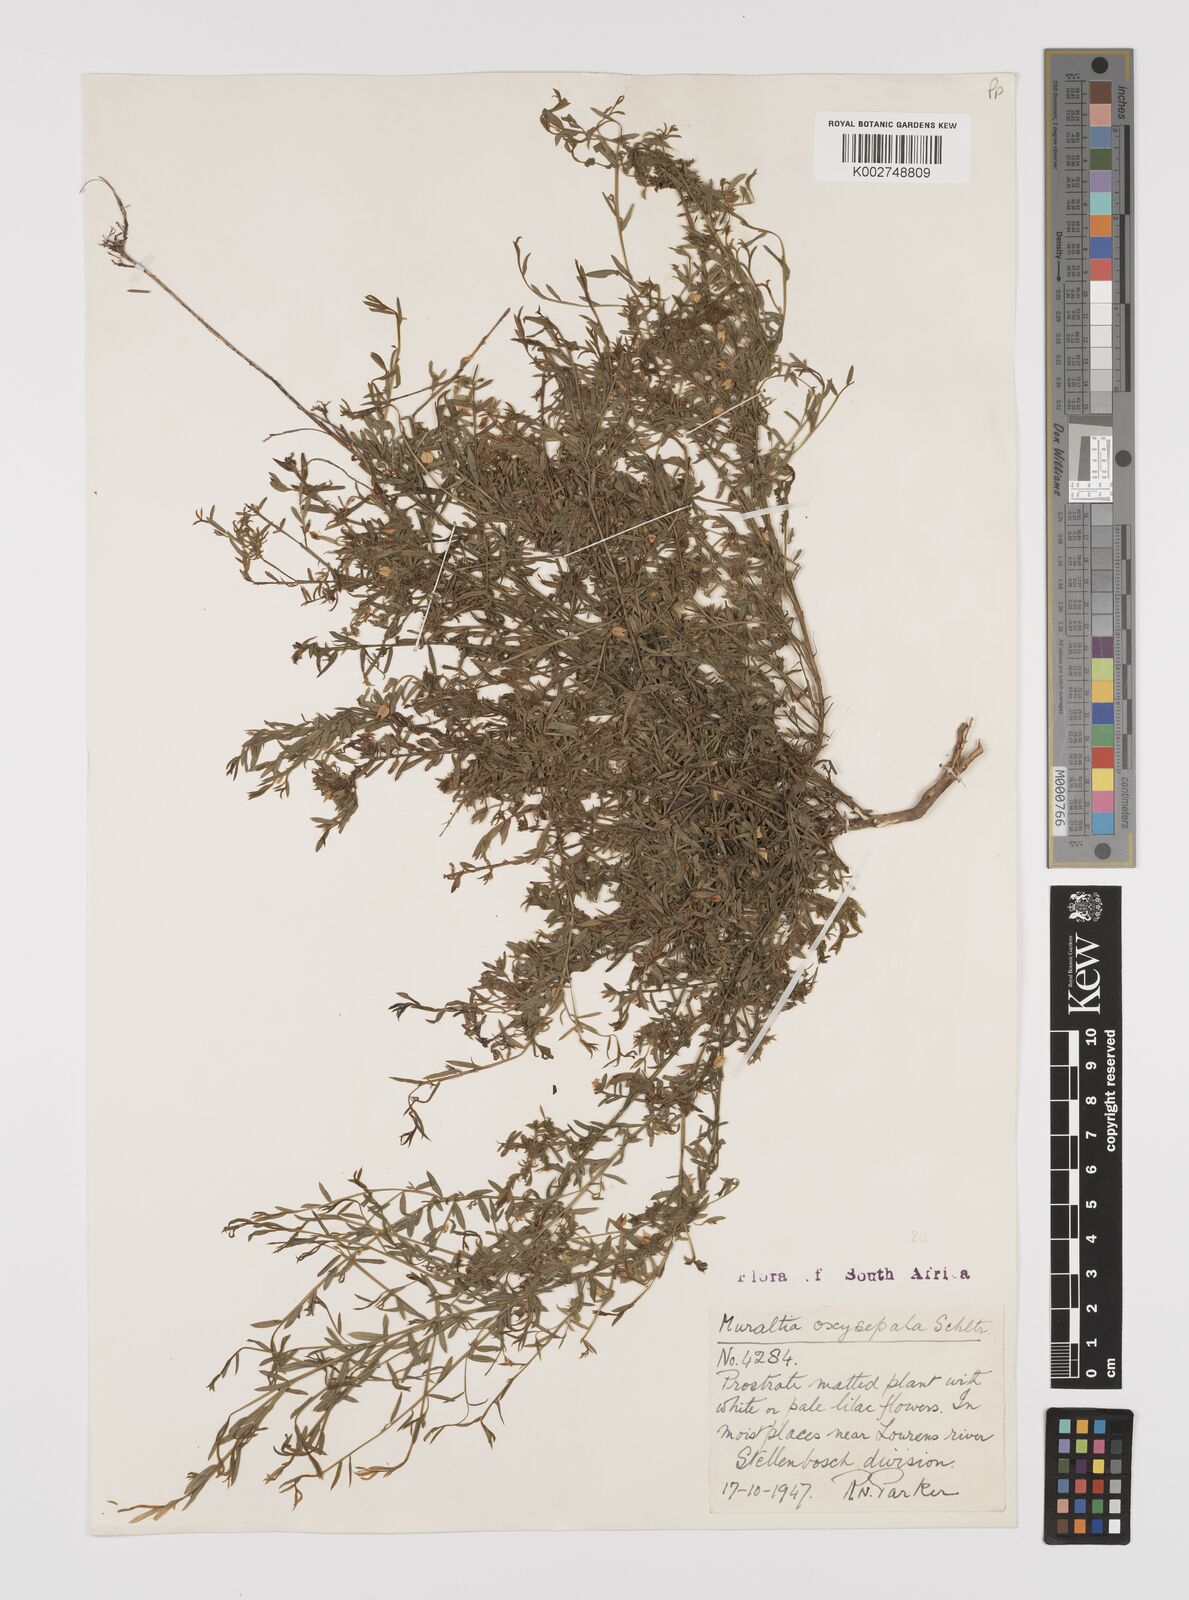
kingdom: Plantae
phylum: Tracheophyta
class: Magnoliopsida
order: Fabales
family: Polygalaceae
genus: Muraltia
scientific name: Muraltia oxysepala
